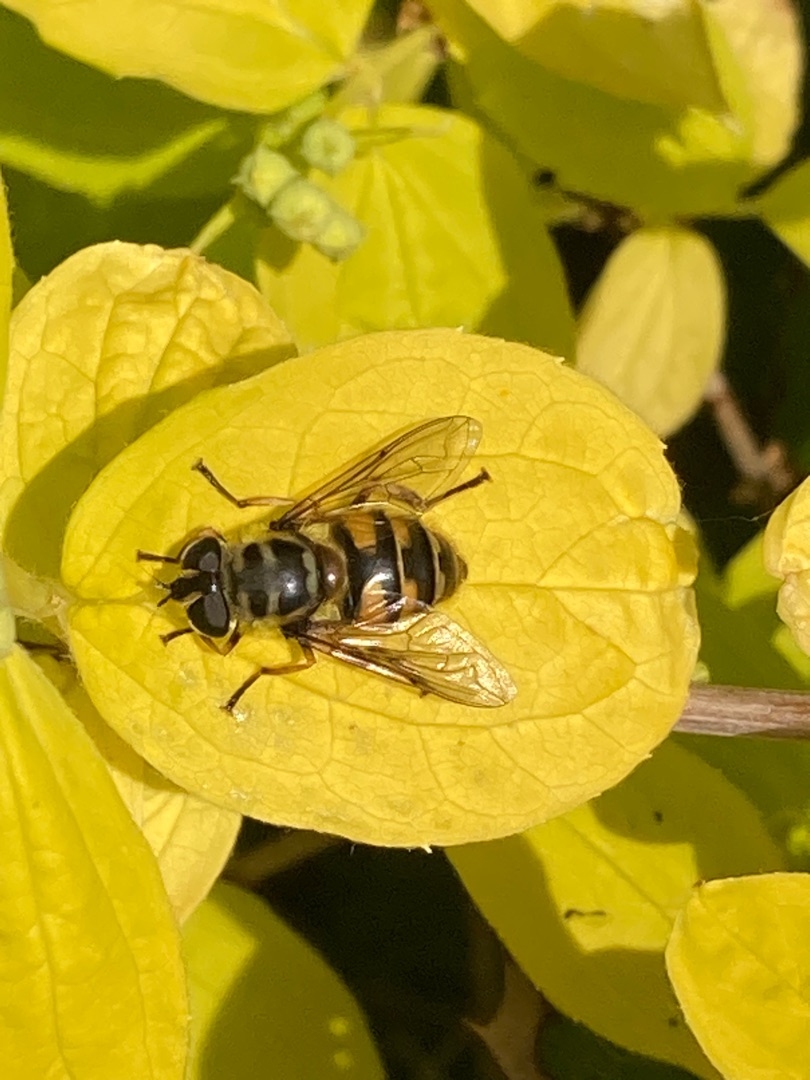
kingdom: Animalia
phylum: Arthropoda
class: Insecta
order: Diptera
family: Syrphidae
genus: Myathropa
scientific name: Myathropa florea
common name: Dødningehoved-svirreflue
